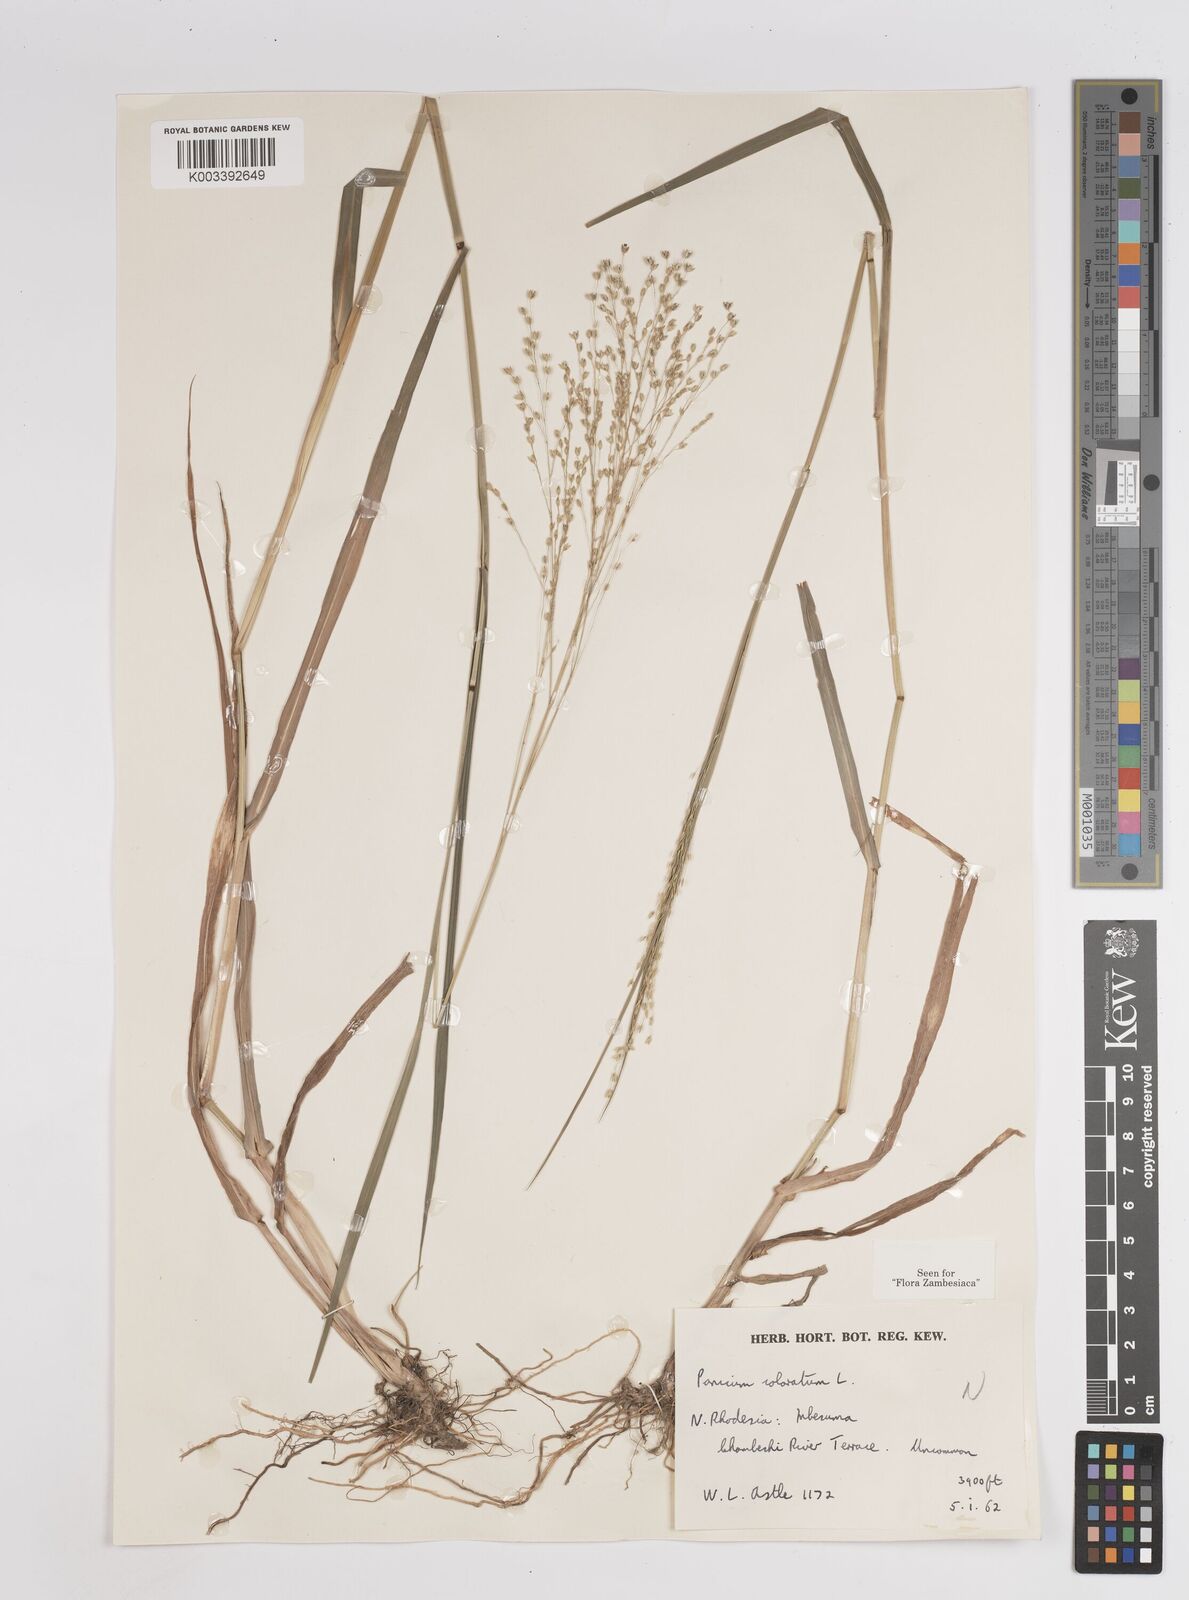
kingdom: Plantae
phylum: Tracheophyta
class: Liliopsida
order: Poales
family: Poaceae
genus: Panicum
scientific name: Panicum
